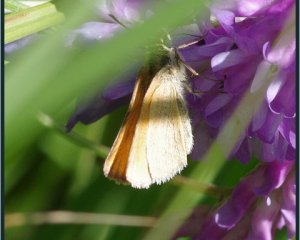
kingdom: Animalia
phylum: Arthropoda
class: Insecta
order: Lepidoptera
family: Hesperiidae
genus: Thymelicus
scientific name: Thymelicus lineola
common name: European Skipper
